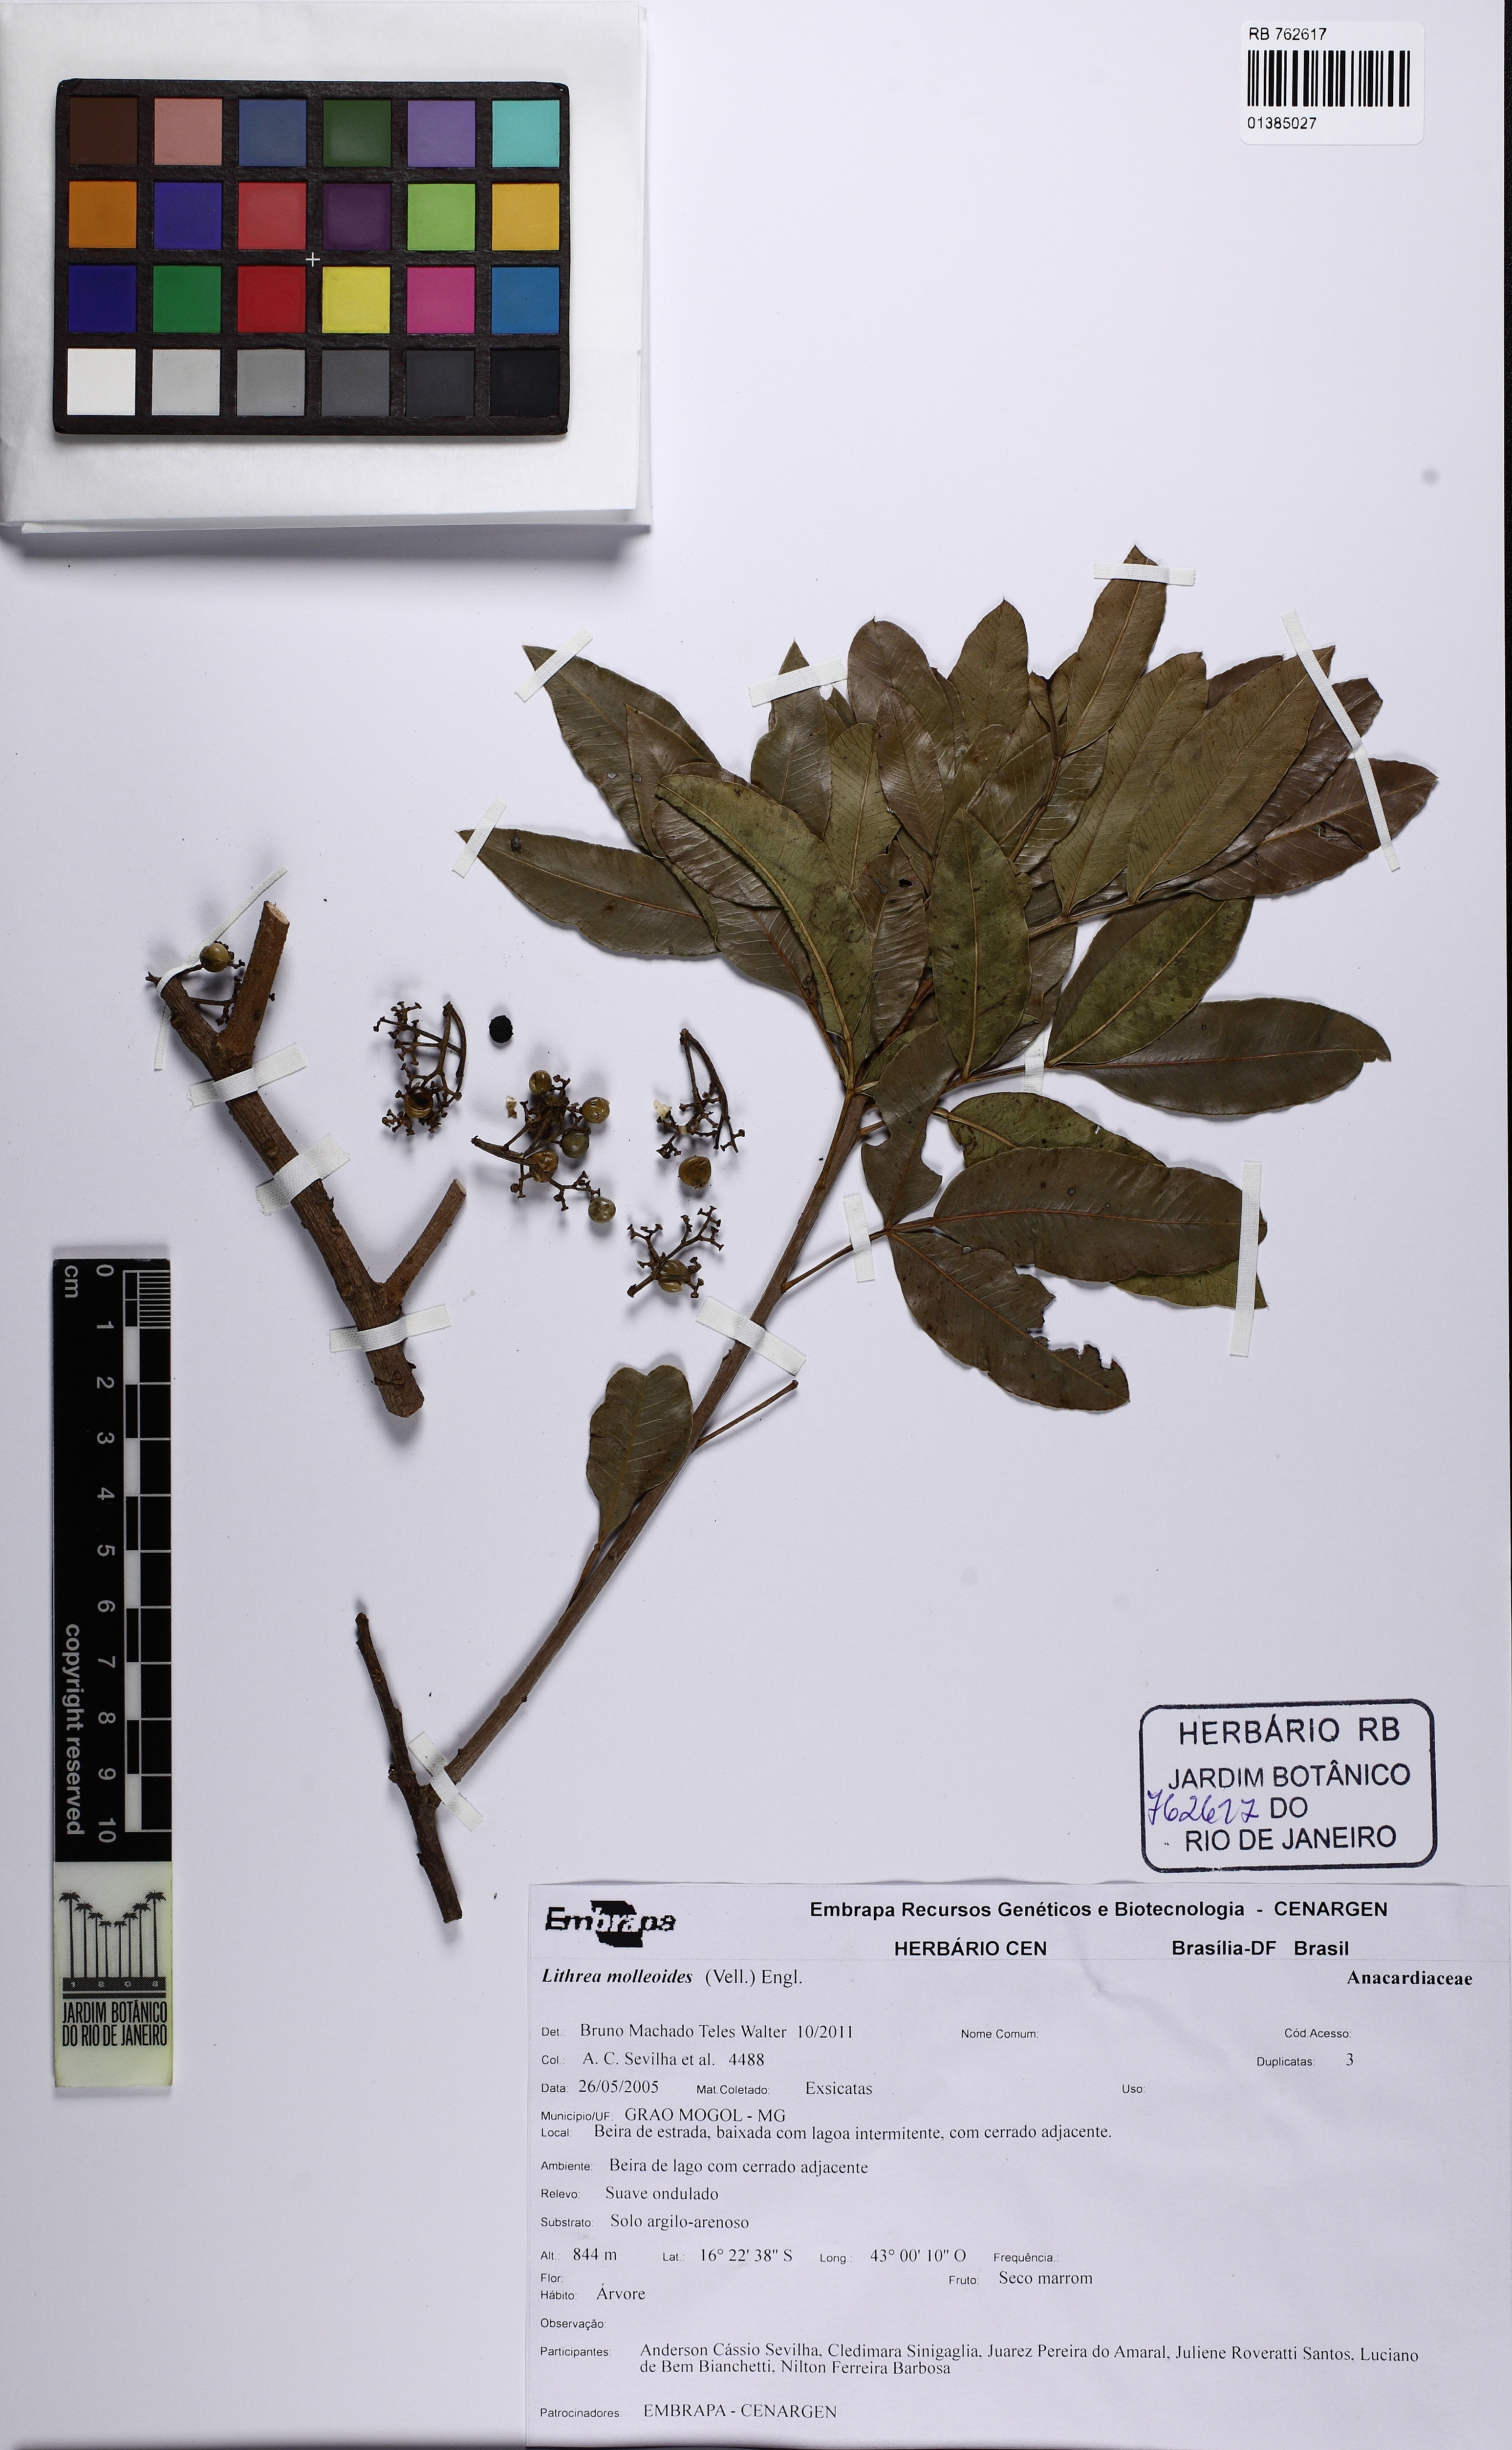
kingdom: Plantae
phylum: Tracheophyta
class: Magnoliopsida
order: Sapindales
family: Anacardiaceae
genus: Lithraea
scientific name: Lithraea molleoides
